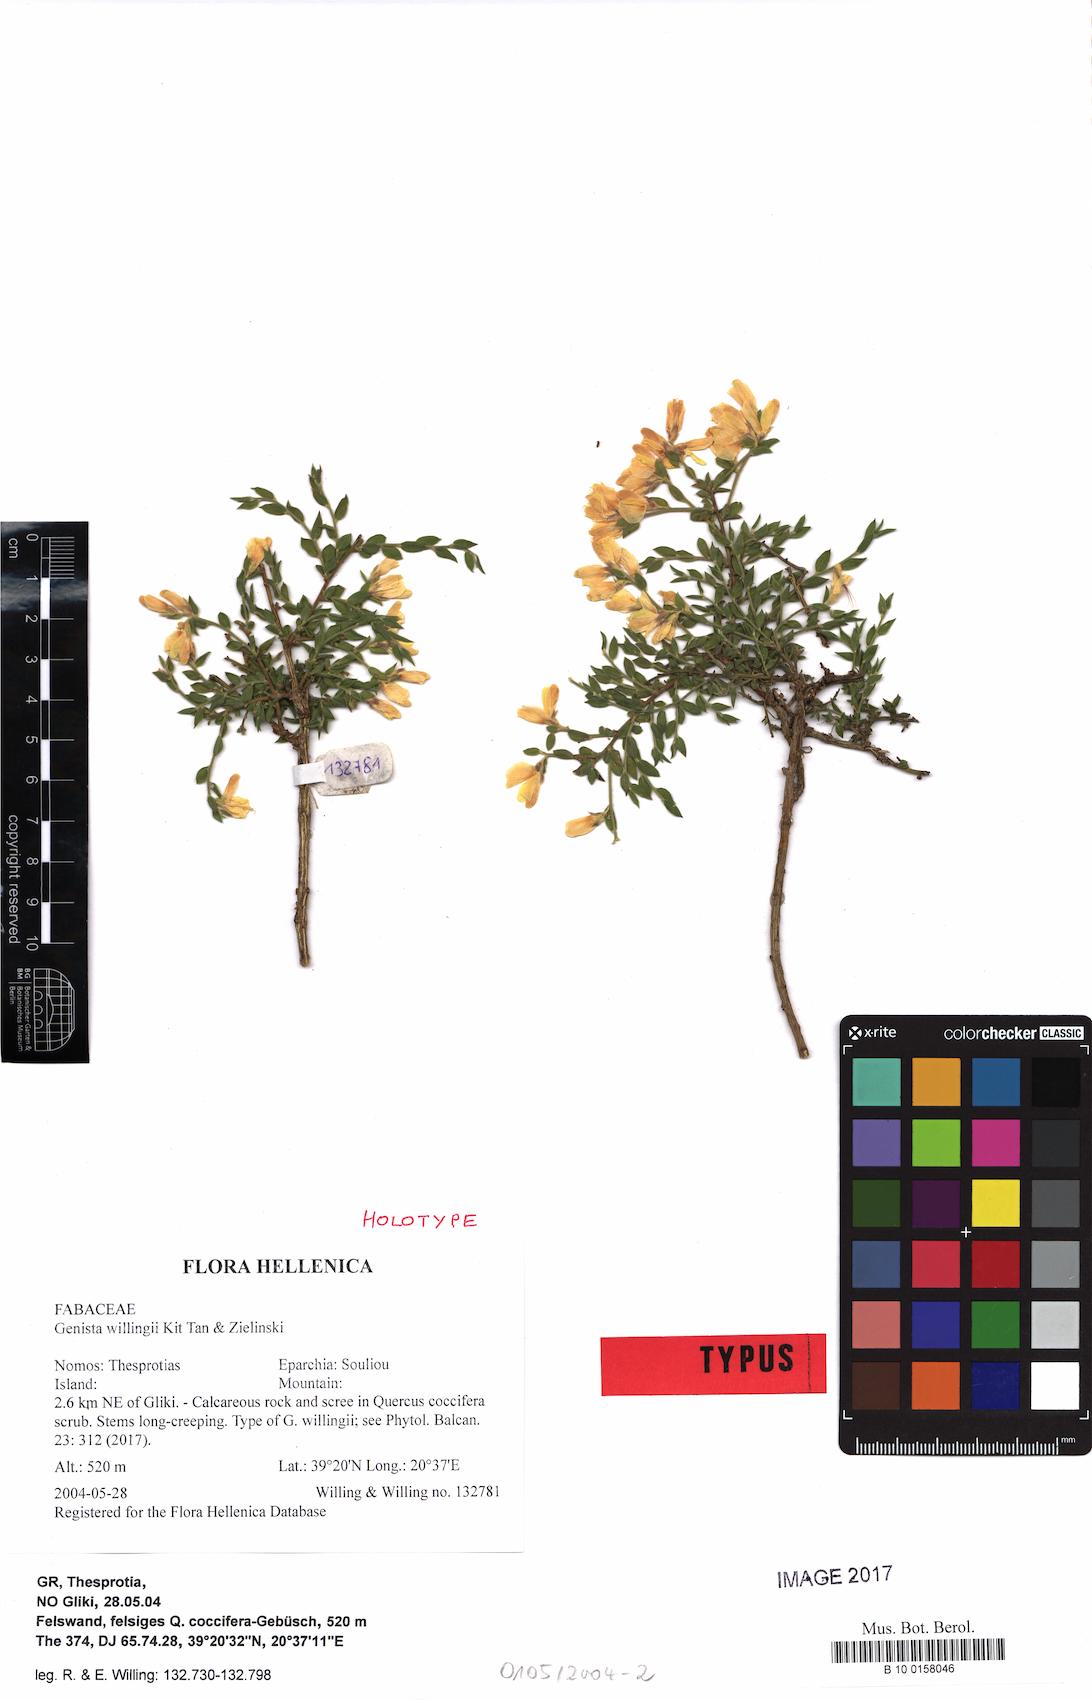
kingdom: Plantae
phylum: Tracheophyta
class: Magnoliopsida
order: Fabales
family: Fabaceae
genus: Genista
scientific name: Genista willingii
